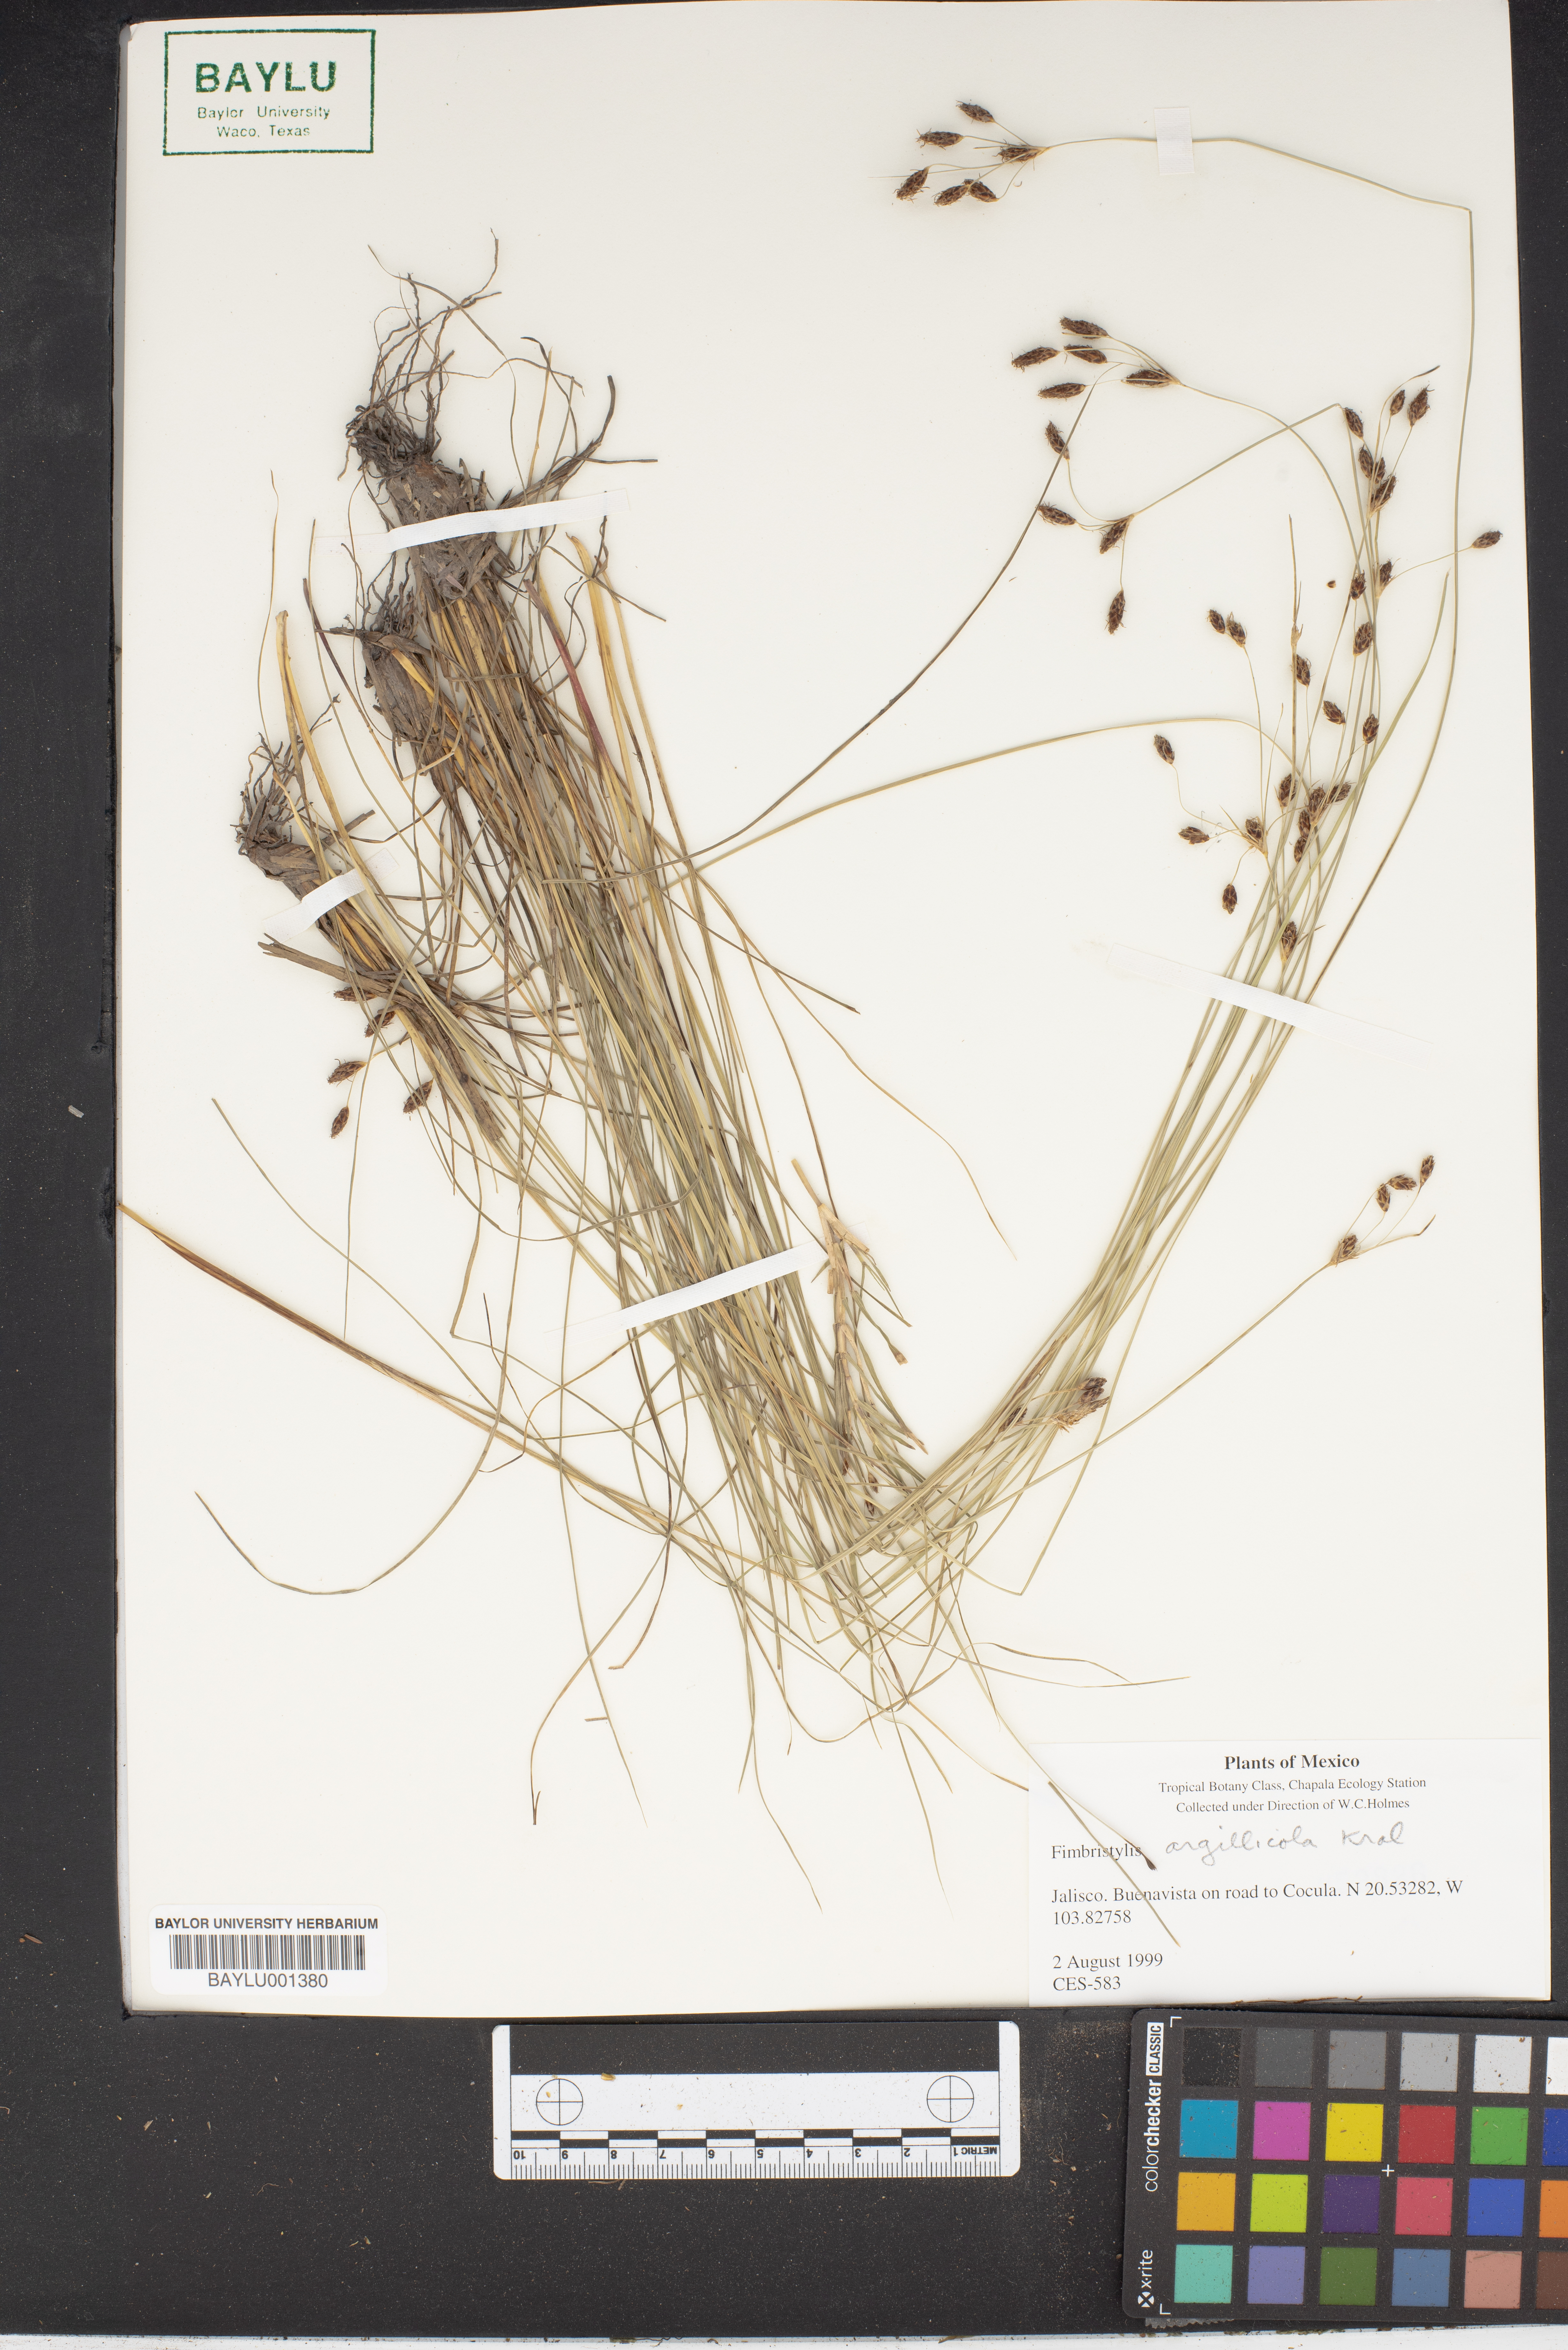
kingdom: Plantae
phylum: Tracheophyta
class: Liliopsida
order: Poales
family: Cyperaceae
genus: Fimbristylis
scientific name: Fimbristylis argillicola
